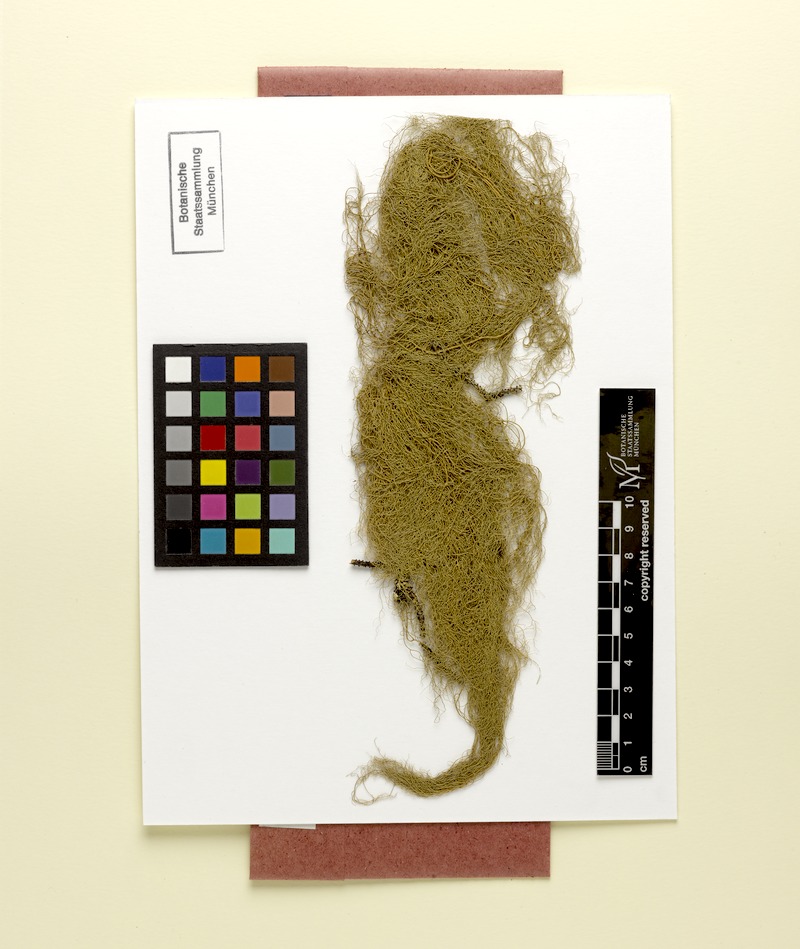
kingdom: Fungi
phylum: Ascomycota
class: Lecanoromycetes
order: Lecanorales
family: Parmeliaceae
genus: Usnea
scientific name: Usnea cavernosa
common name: Pitted beard lichen
